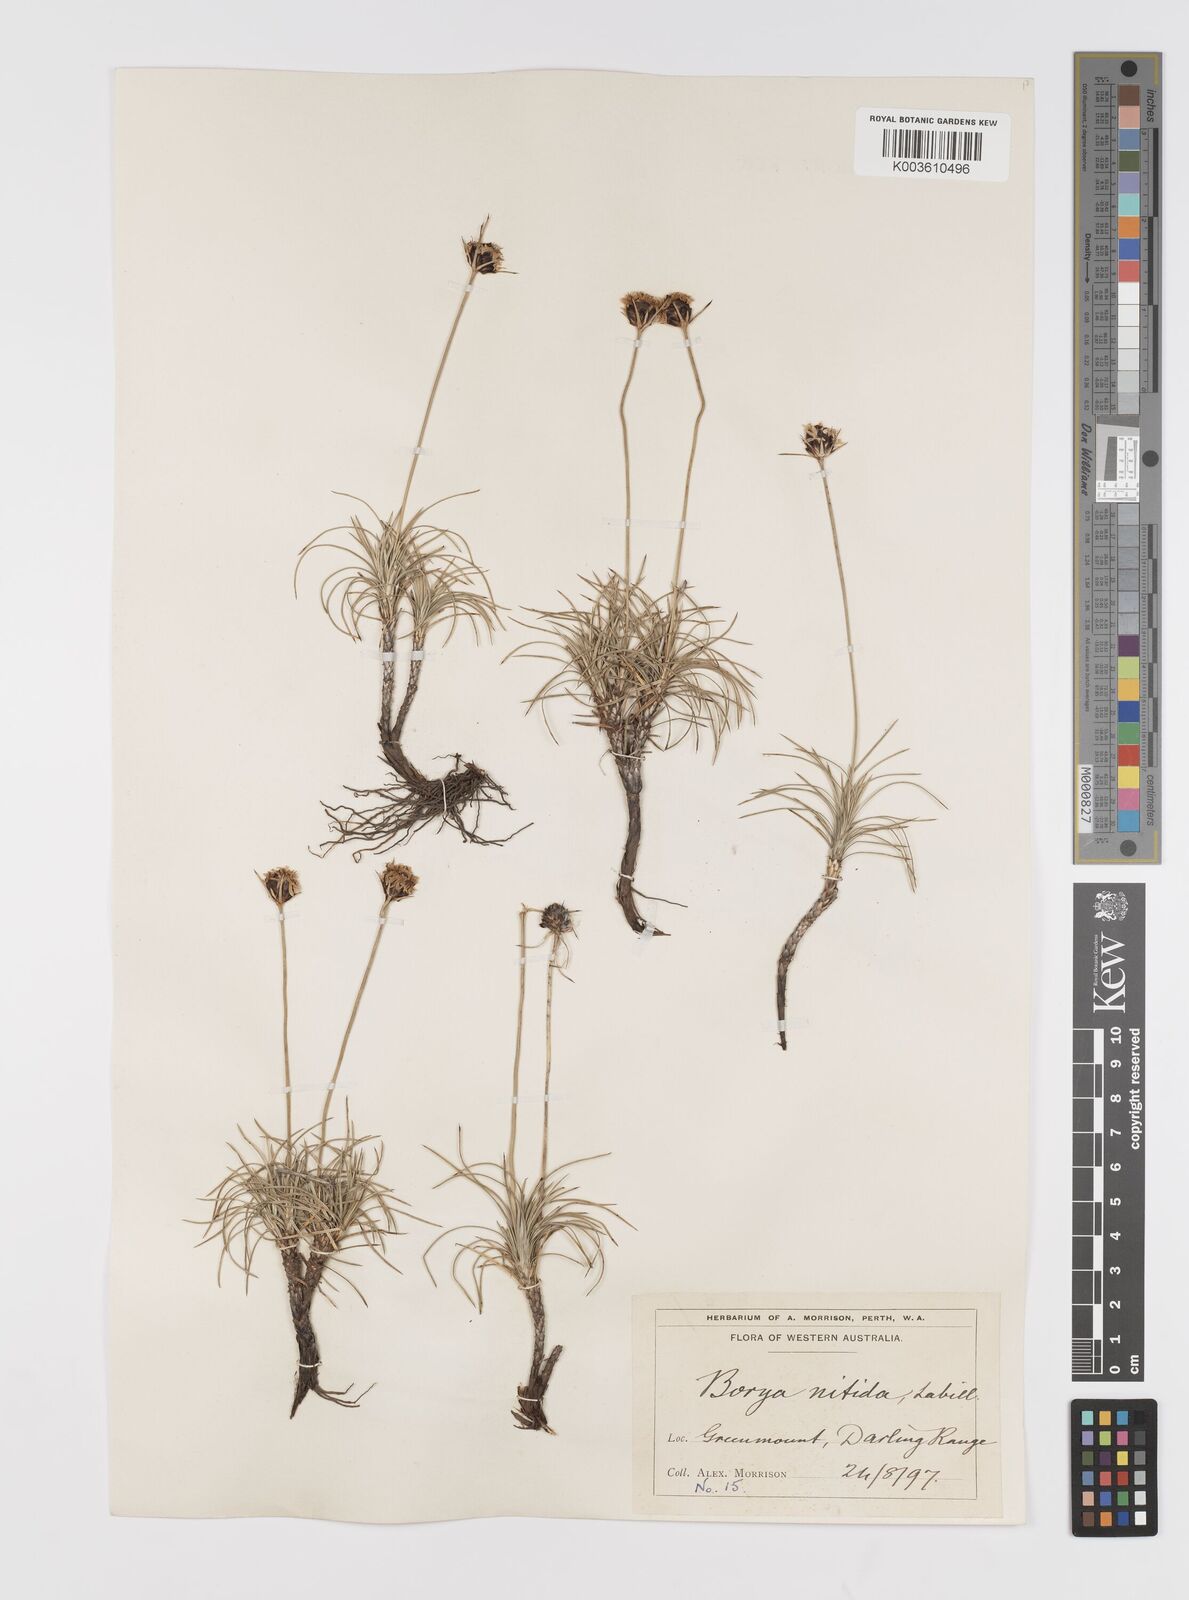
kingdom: Plantae
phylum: Tracheophyta
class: Liliopsida
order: Asparagales
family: Boryaceae
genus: Borya
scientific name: Borya nitida
